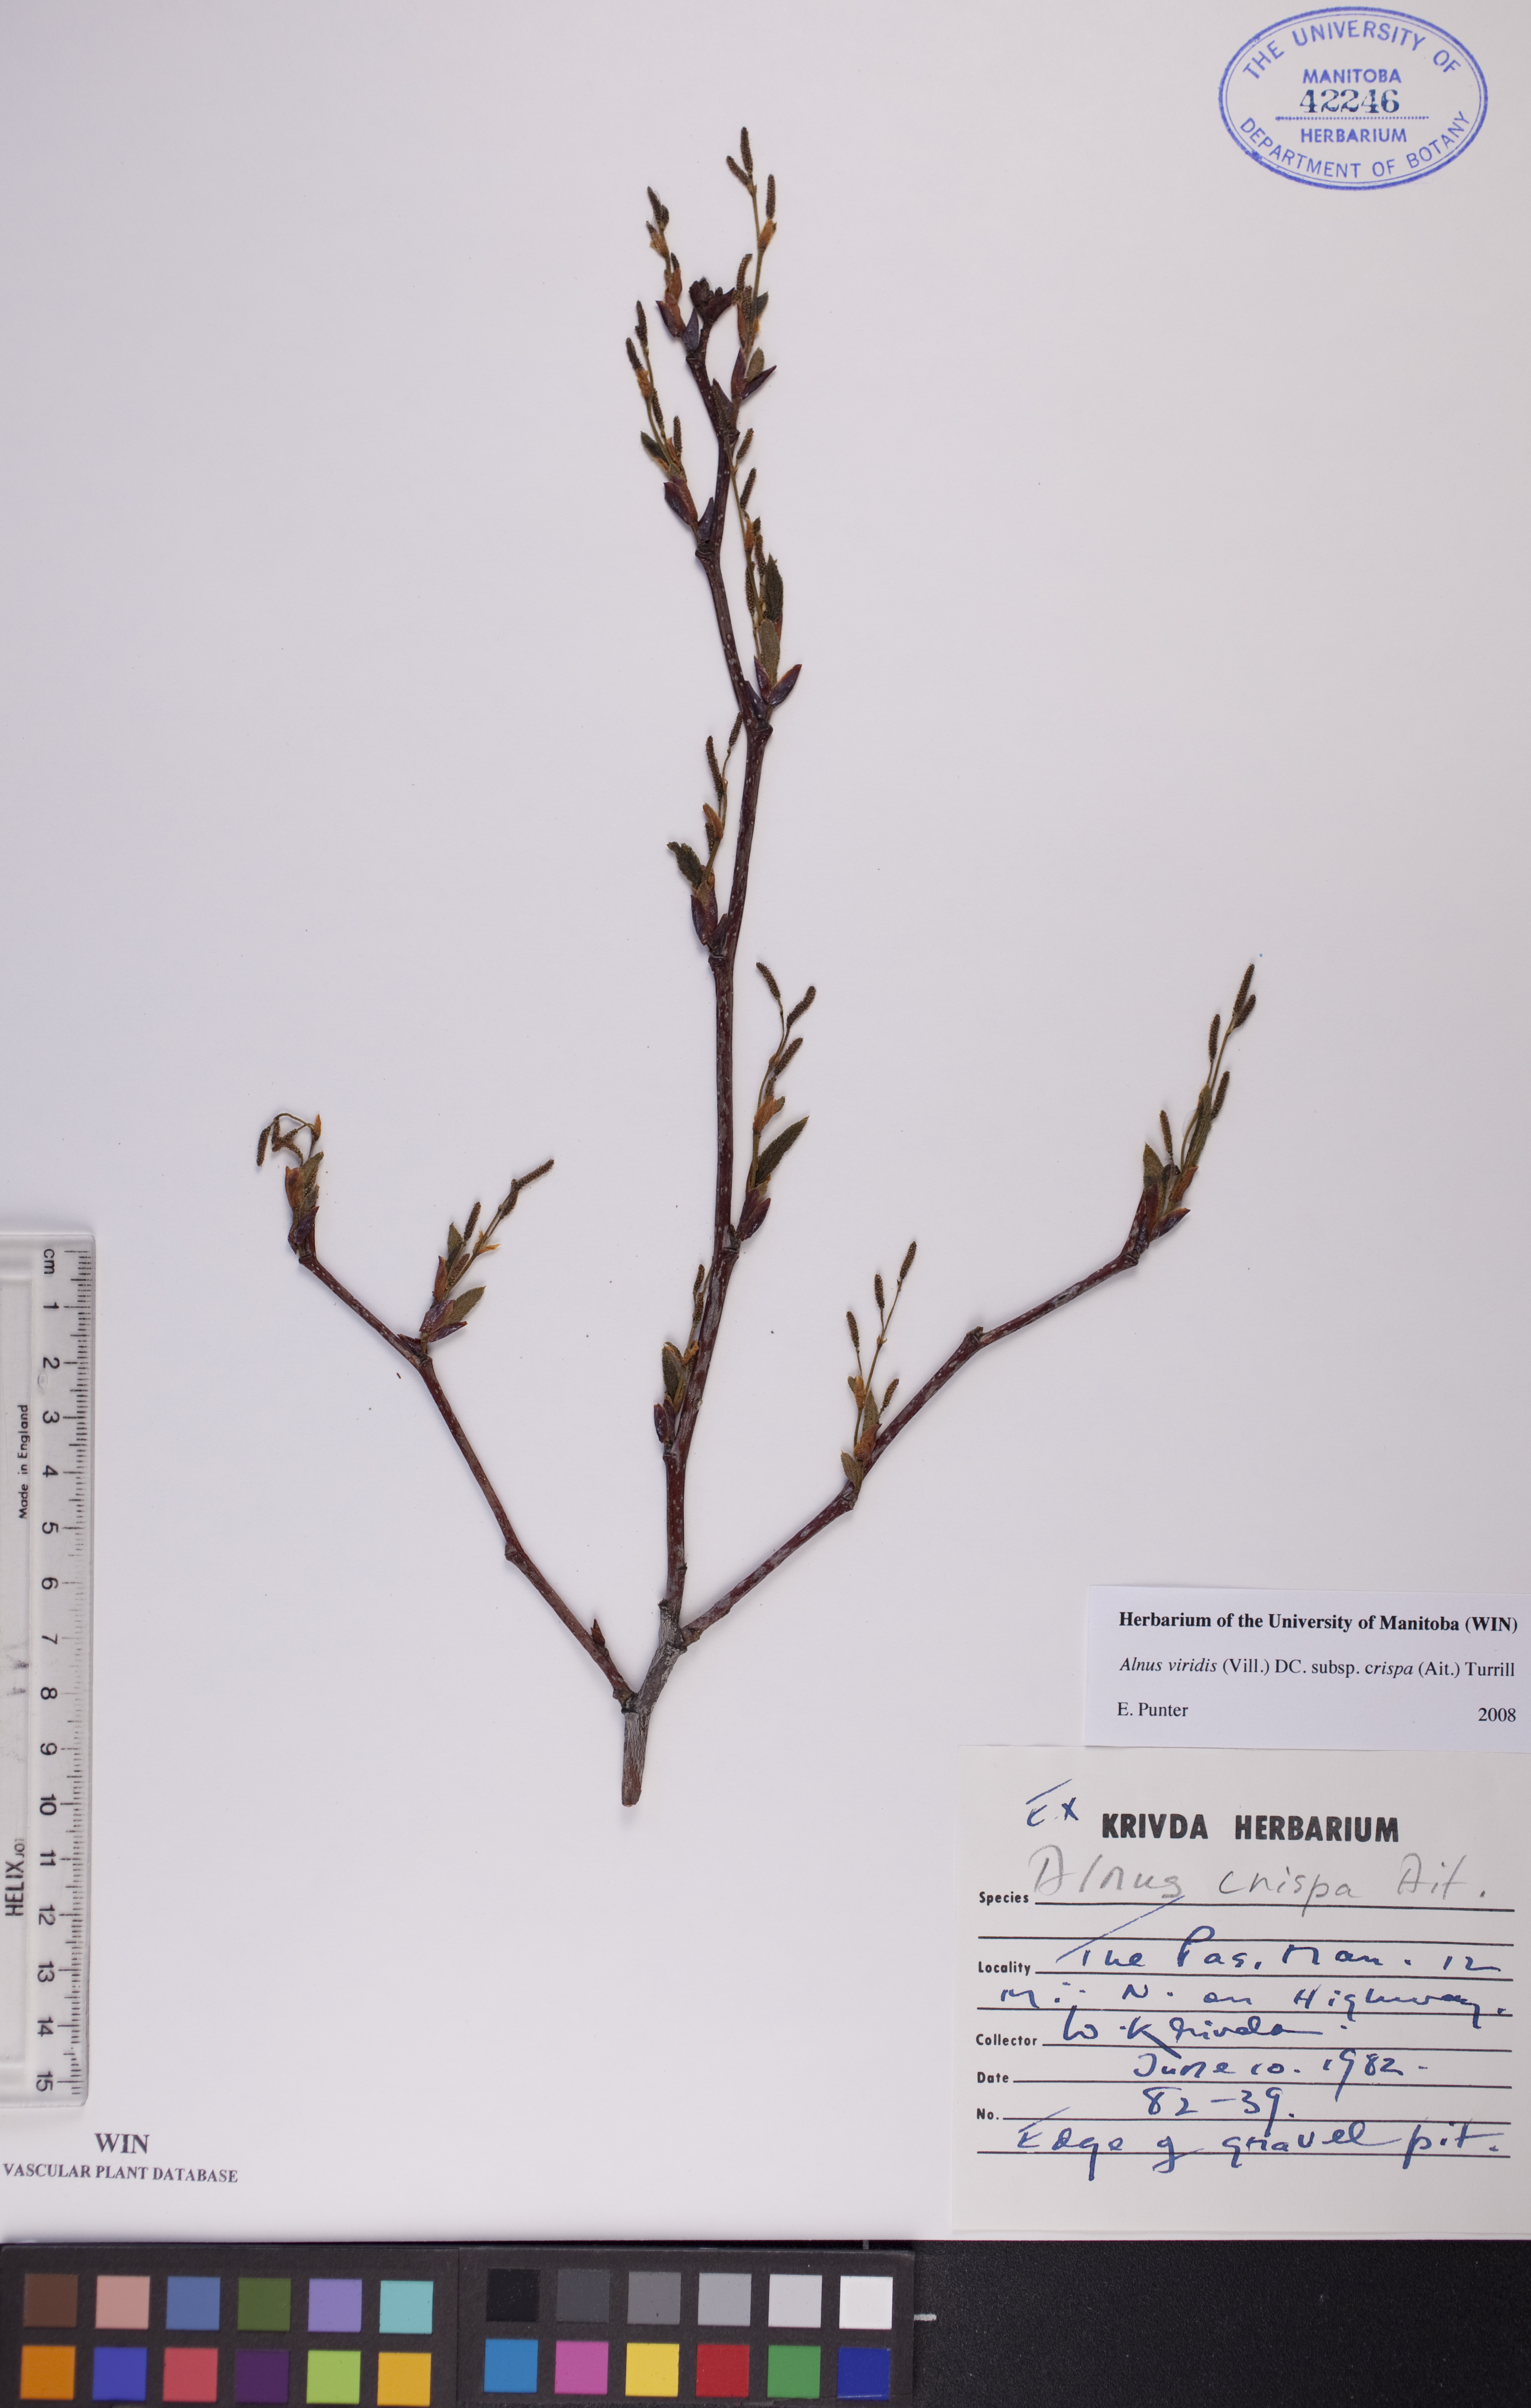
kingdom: Plantae
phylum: Tracheophyta
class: Magnoliopsida
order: Fagales
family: Betulaceae
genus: Alnus
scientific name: Alnus alnobetula
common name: Green alder
